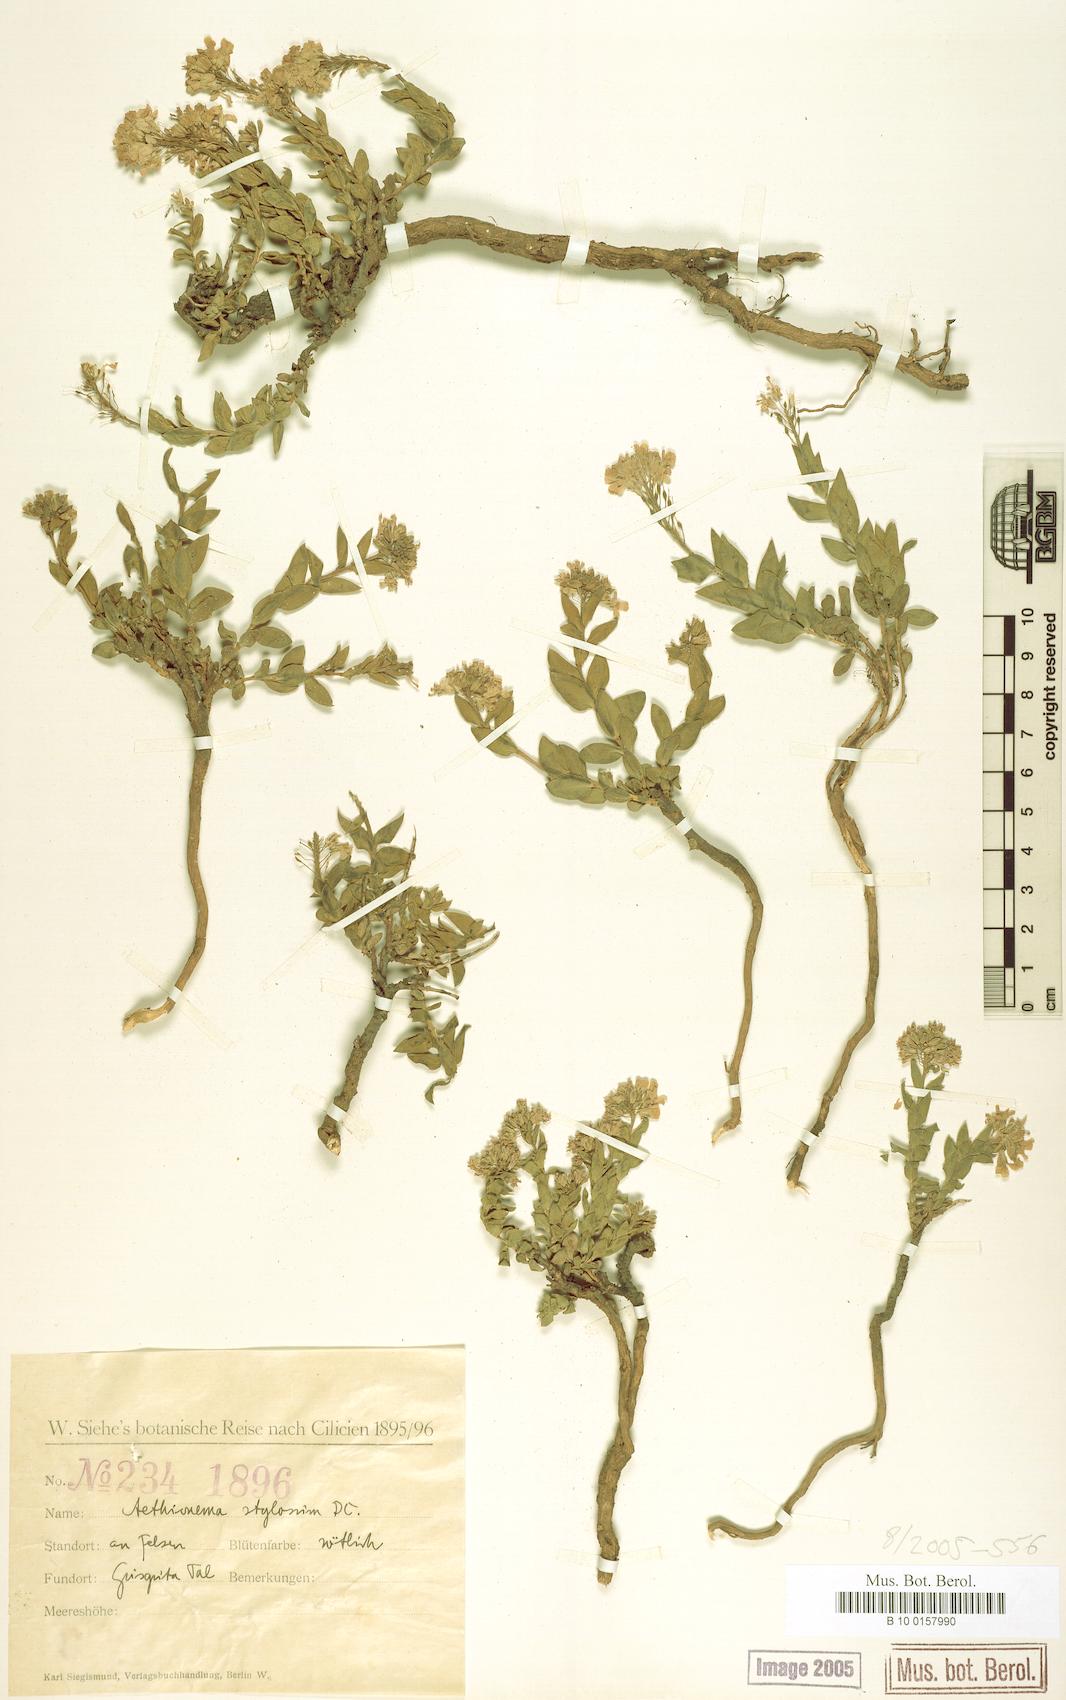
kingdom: Plantae
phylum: Tracheophyta
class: Magnoliopsida
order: Brassicales
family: Brassicaceae
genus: Aethionema
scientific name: Aethionema stylosum
